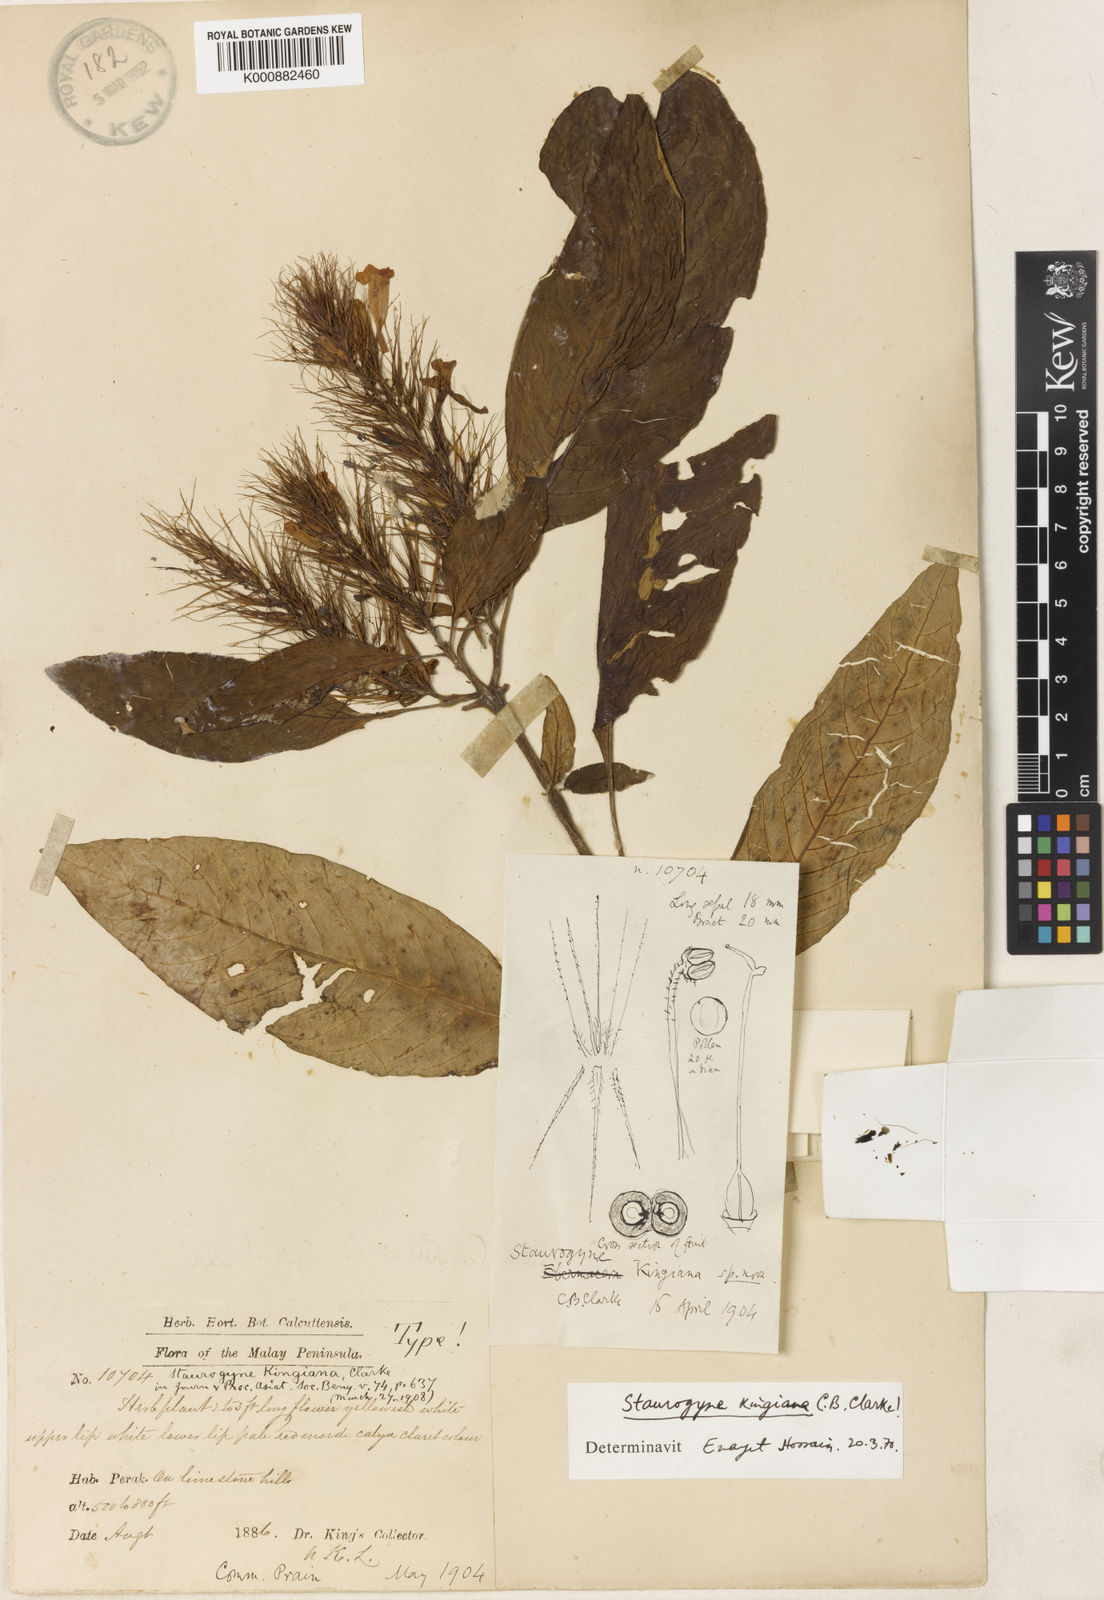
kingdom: Plantae
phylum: Tracheophyta
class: Magnoliopsida
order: Lamiales
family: Acanthaceae
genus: Staurogyne
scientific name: Staurogyne kingiana
